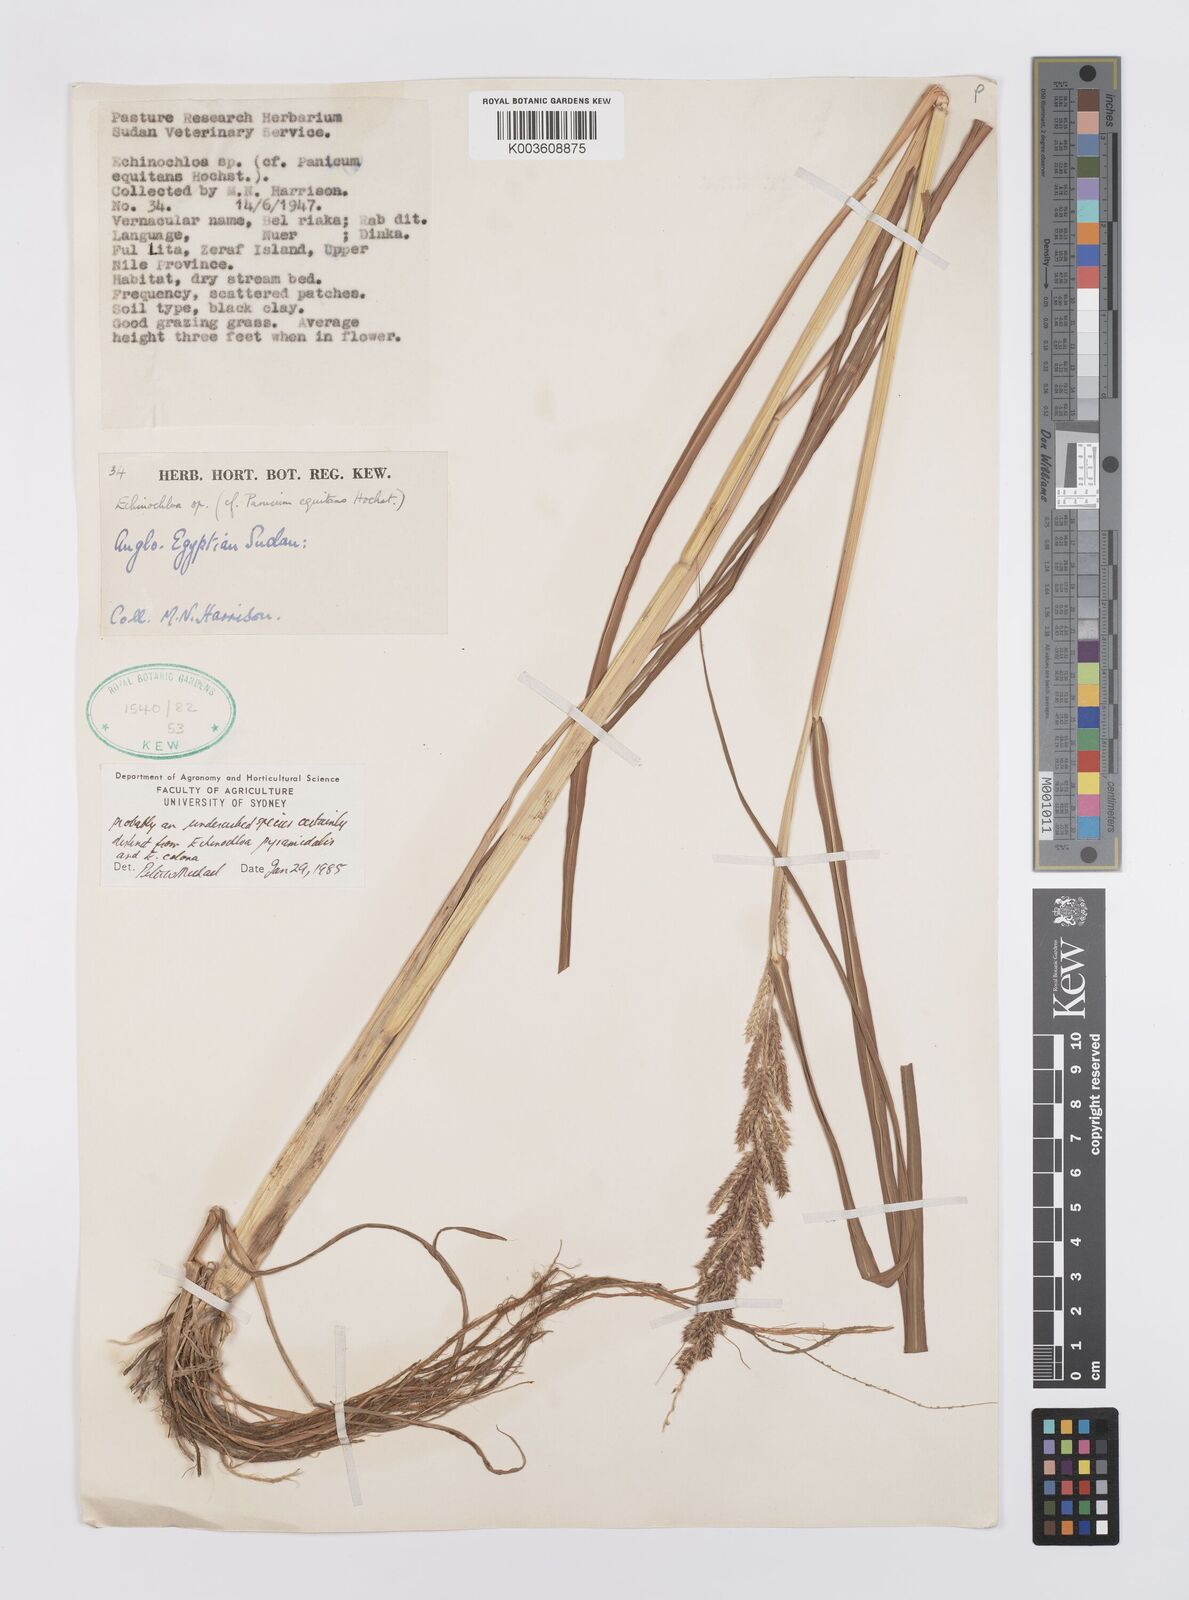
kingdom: Plantae
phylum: Tracheophyta
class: Liliopsida
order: Poales
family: Poaceae
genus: Echinochloa
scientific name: Echinochloa colonum
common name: Jungle rice
